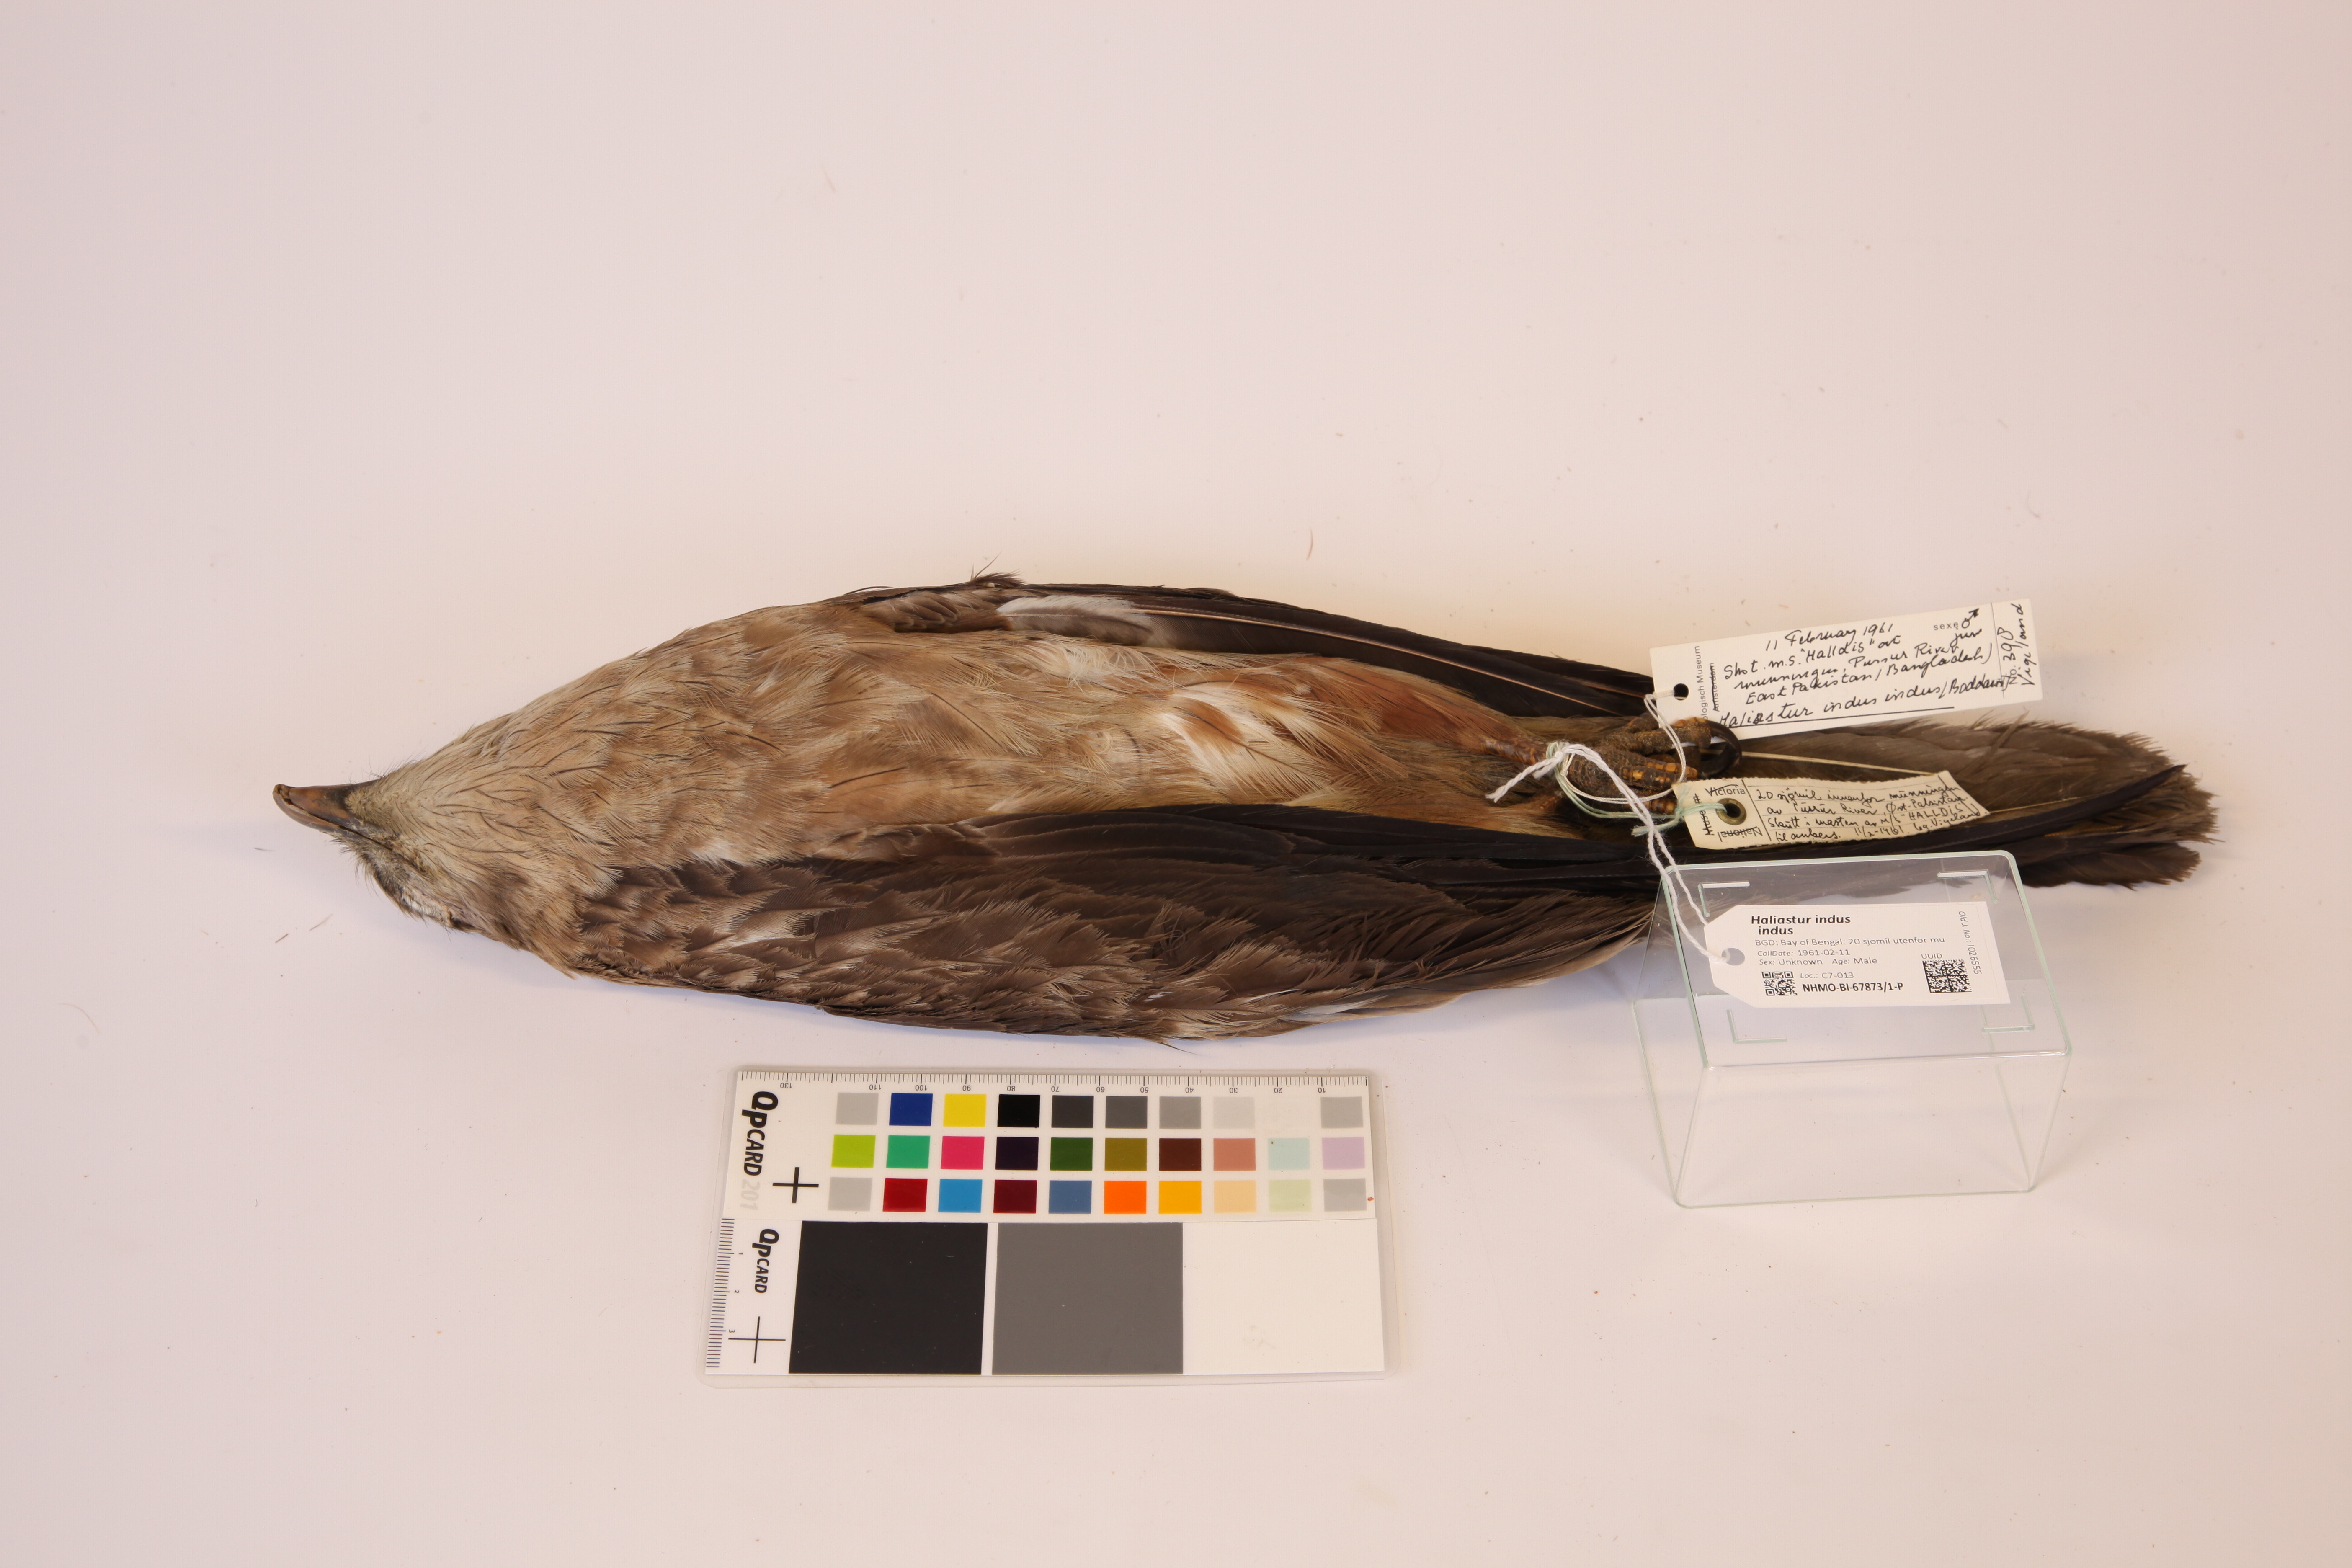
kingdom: Animalia
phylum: Chordata
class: Aves
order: Accipitriformes
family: Accipitridae
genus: Haliastur
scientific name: Haliastur indus
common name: Brahminy kite
